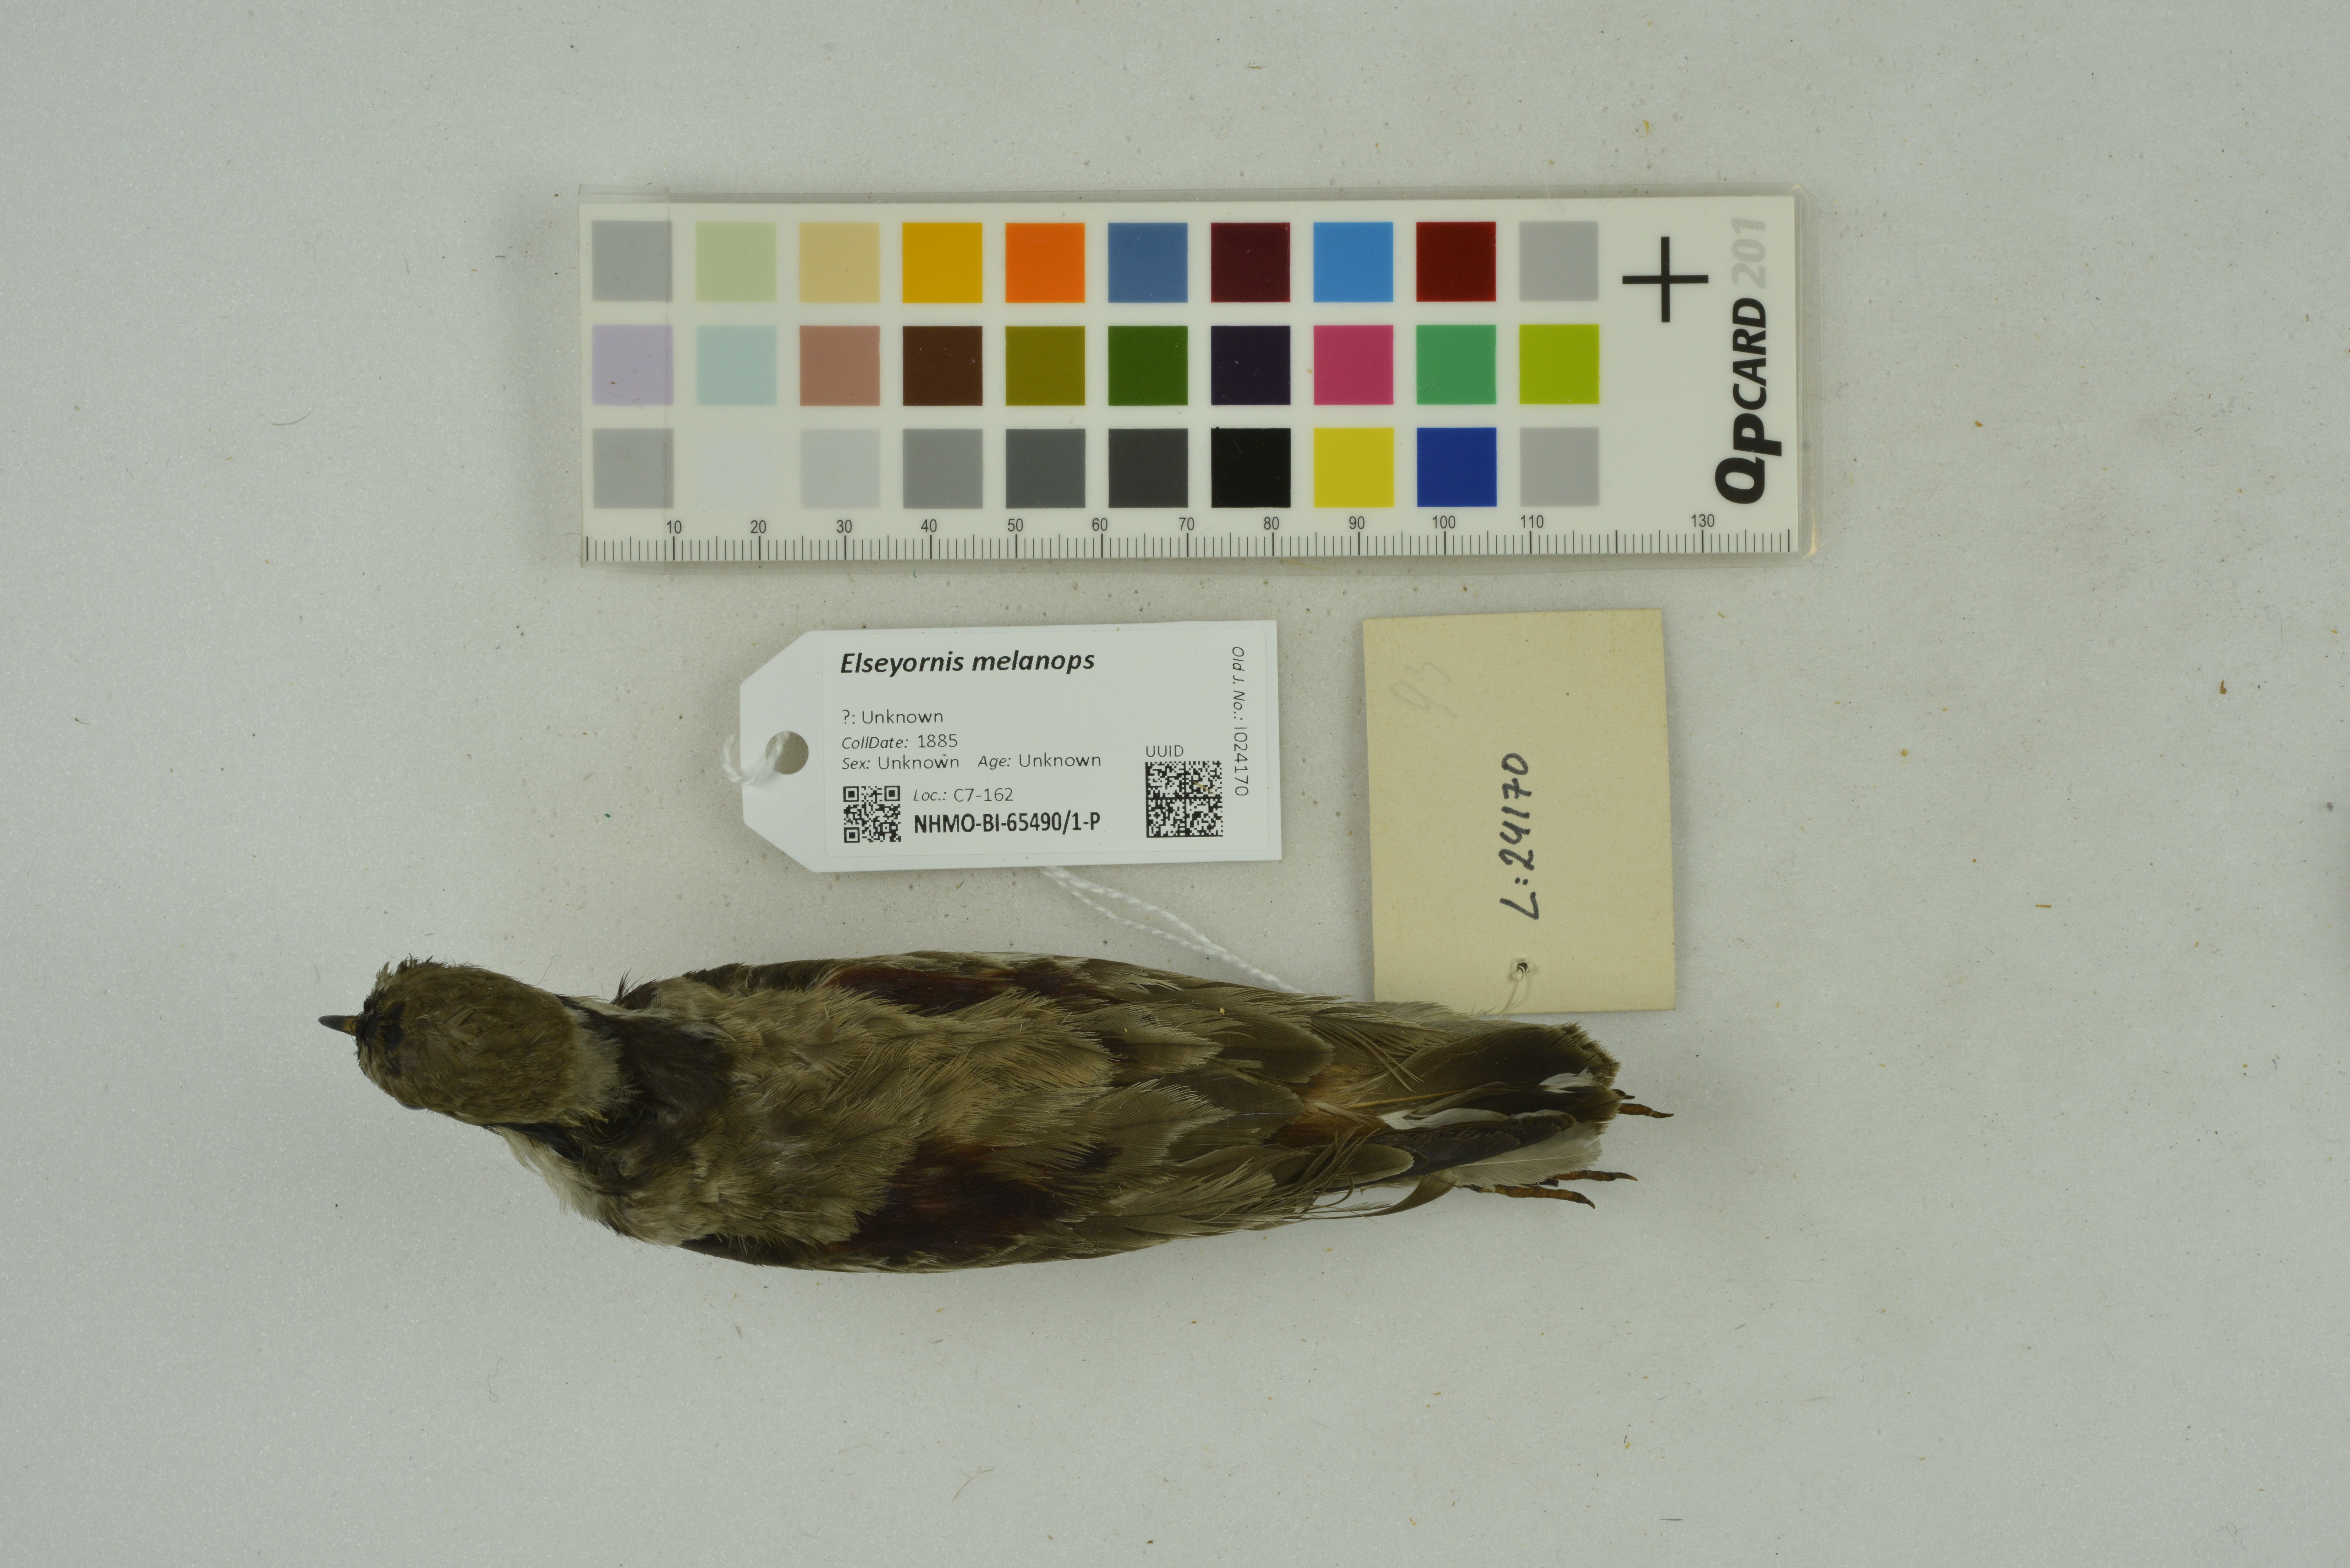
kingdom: Animalia
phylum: Chordata
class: Aves
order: Charadriiformes
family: Charadriidae
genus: Elseyornis
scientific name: Elseyornis melanops
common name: Black-fronted dotterel
